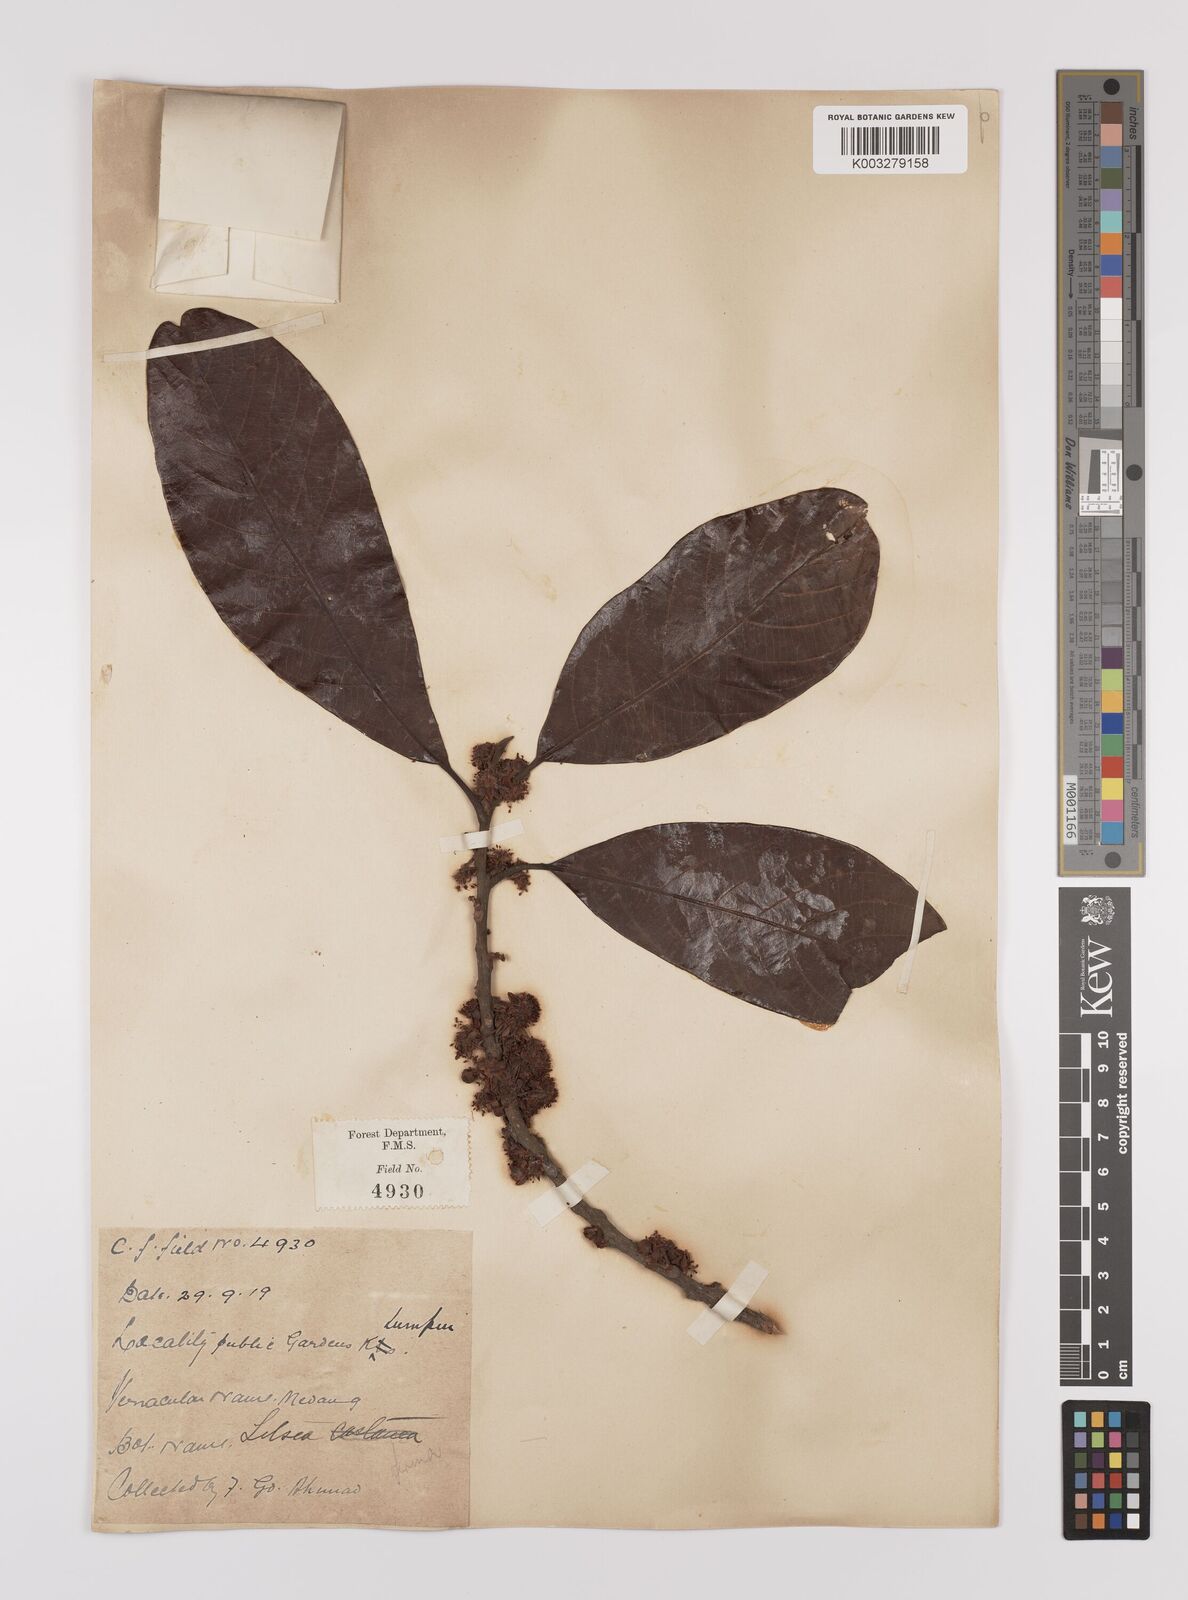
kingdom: Plantae
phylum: Tracheophyta
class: Magnoliopsida
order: Laurales
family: Lauraceae
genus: Litsea
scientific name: Litsea firma
